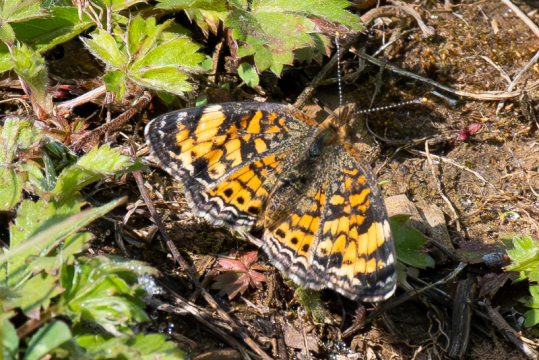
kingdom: Animalia
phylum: Arthropoda
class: Insecta
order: Lepidoptera
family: Nymphalidae
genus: Phyciodes
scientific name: Phyciodes tharos
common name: Pearl Crescent
